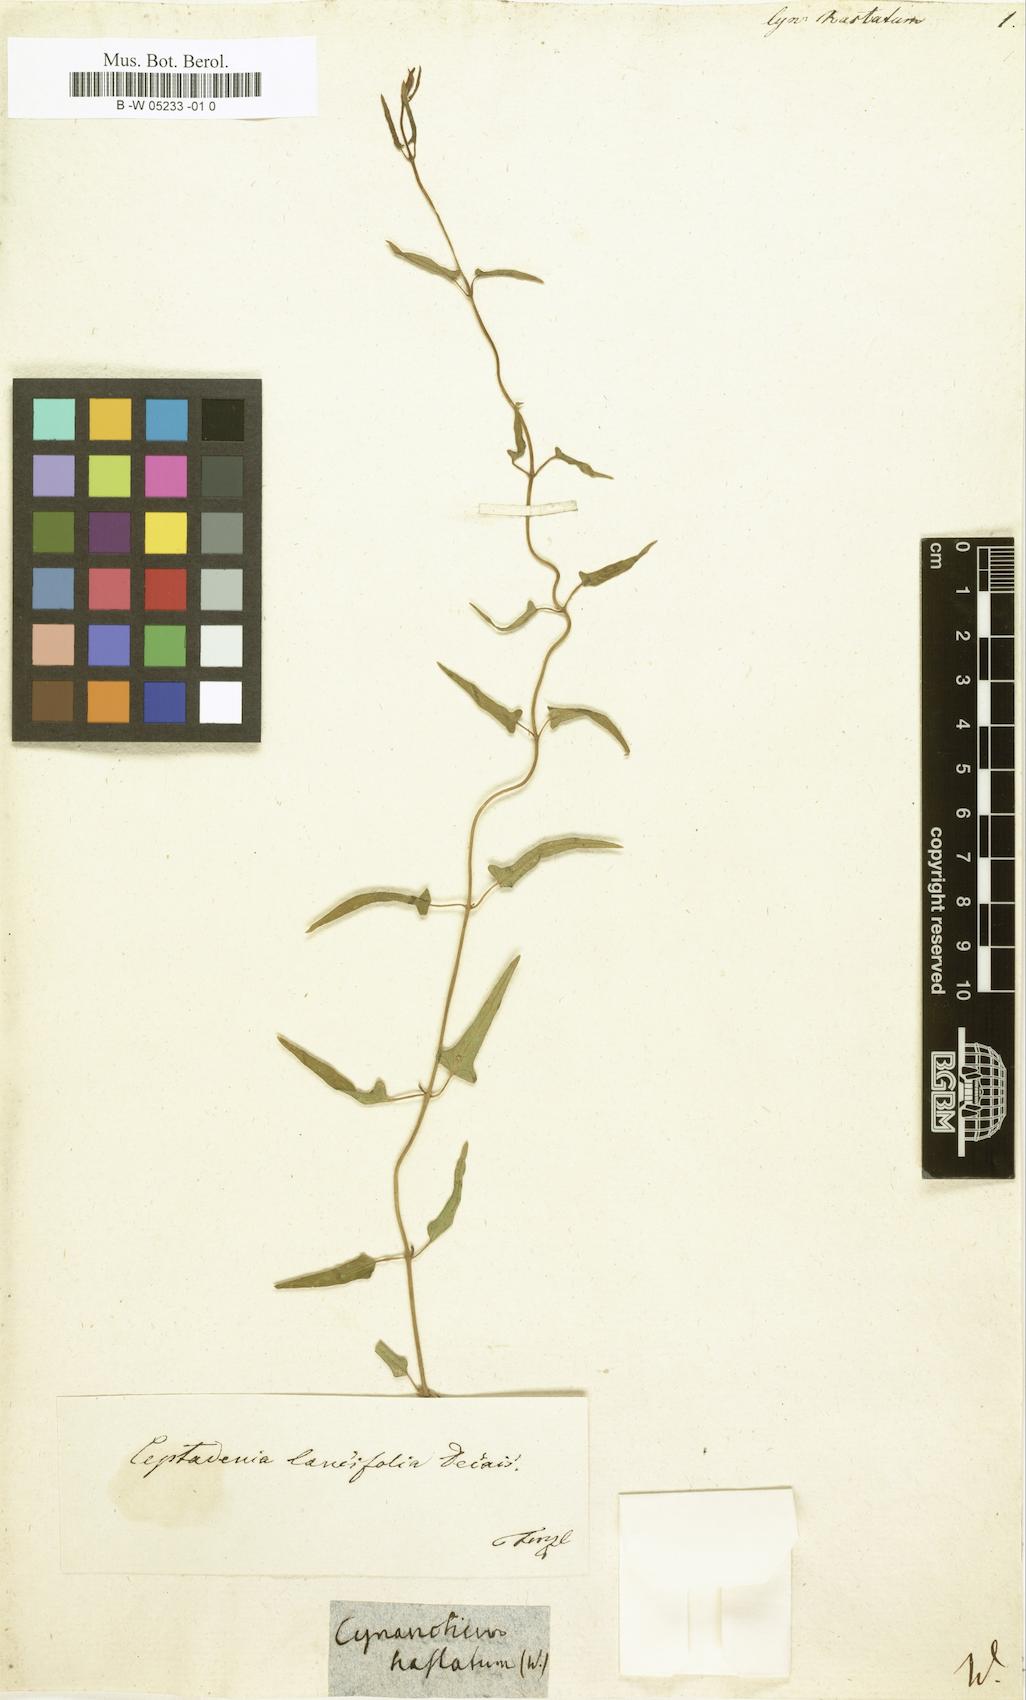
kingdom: Plantae
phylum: Tracheophyta
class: Magnoliopsida
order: Gentianales
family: Apocynaceae
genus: Cynanchum
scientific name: Cynanchum acutum
